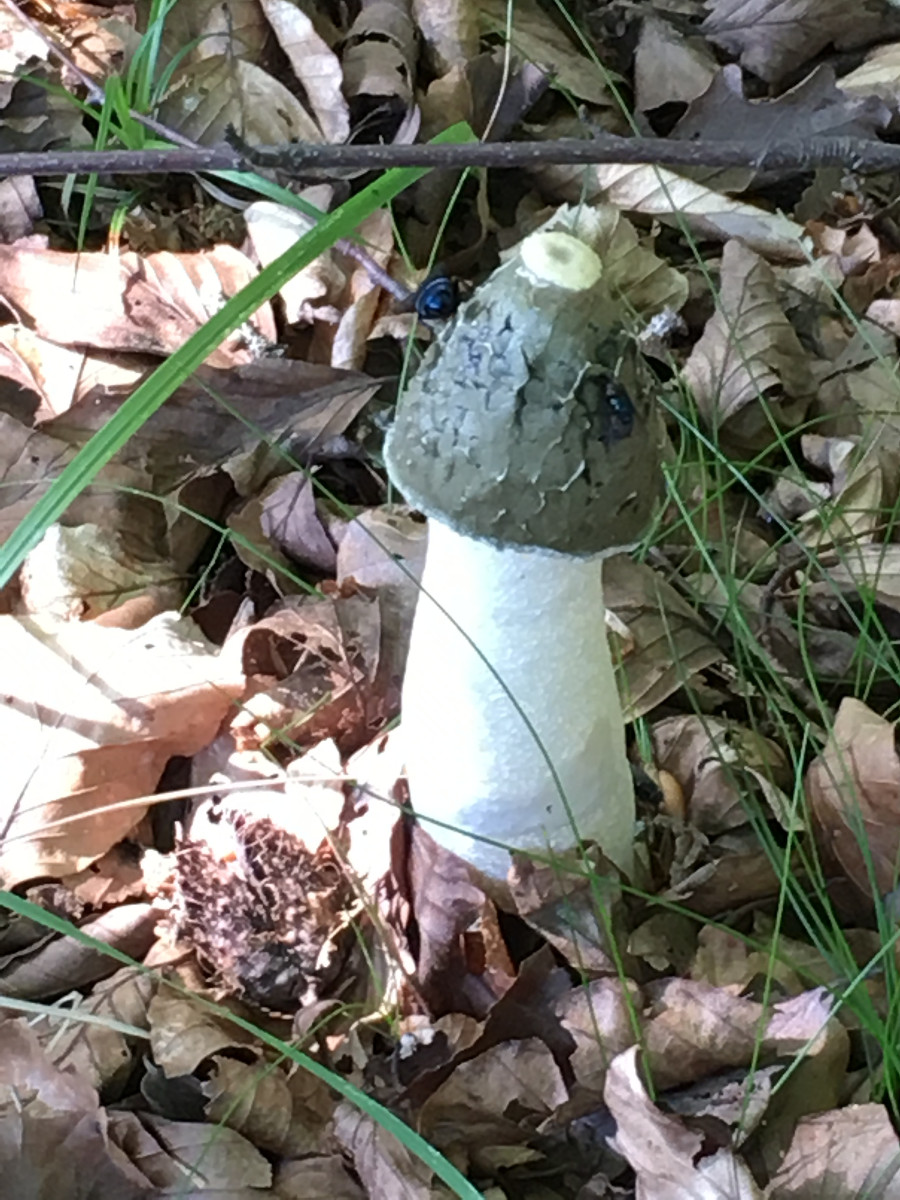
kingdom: Fungi
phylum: Basidiomycota
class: Agaricomycetes
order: Phallales
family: Phallaceae
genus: Phallus
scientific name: Phallus impudicus
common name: almindelig stinksvamp
